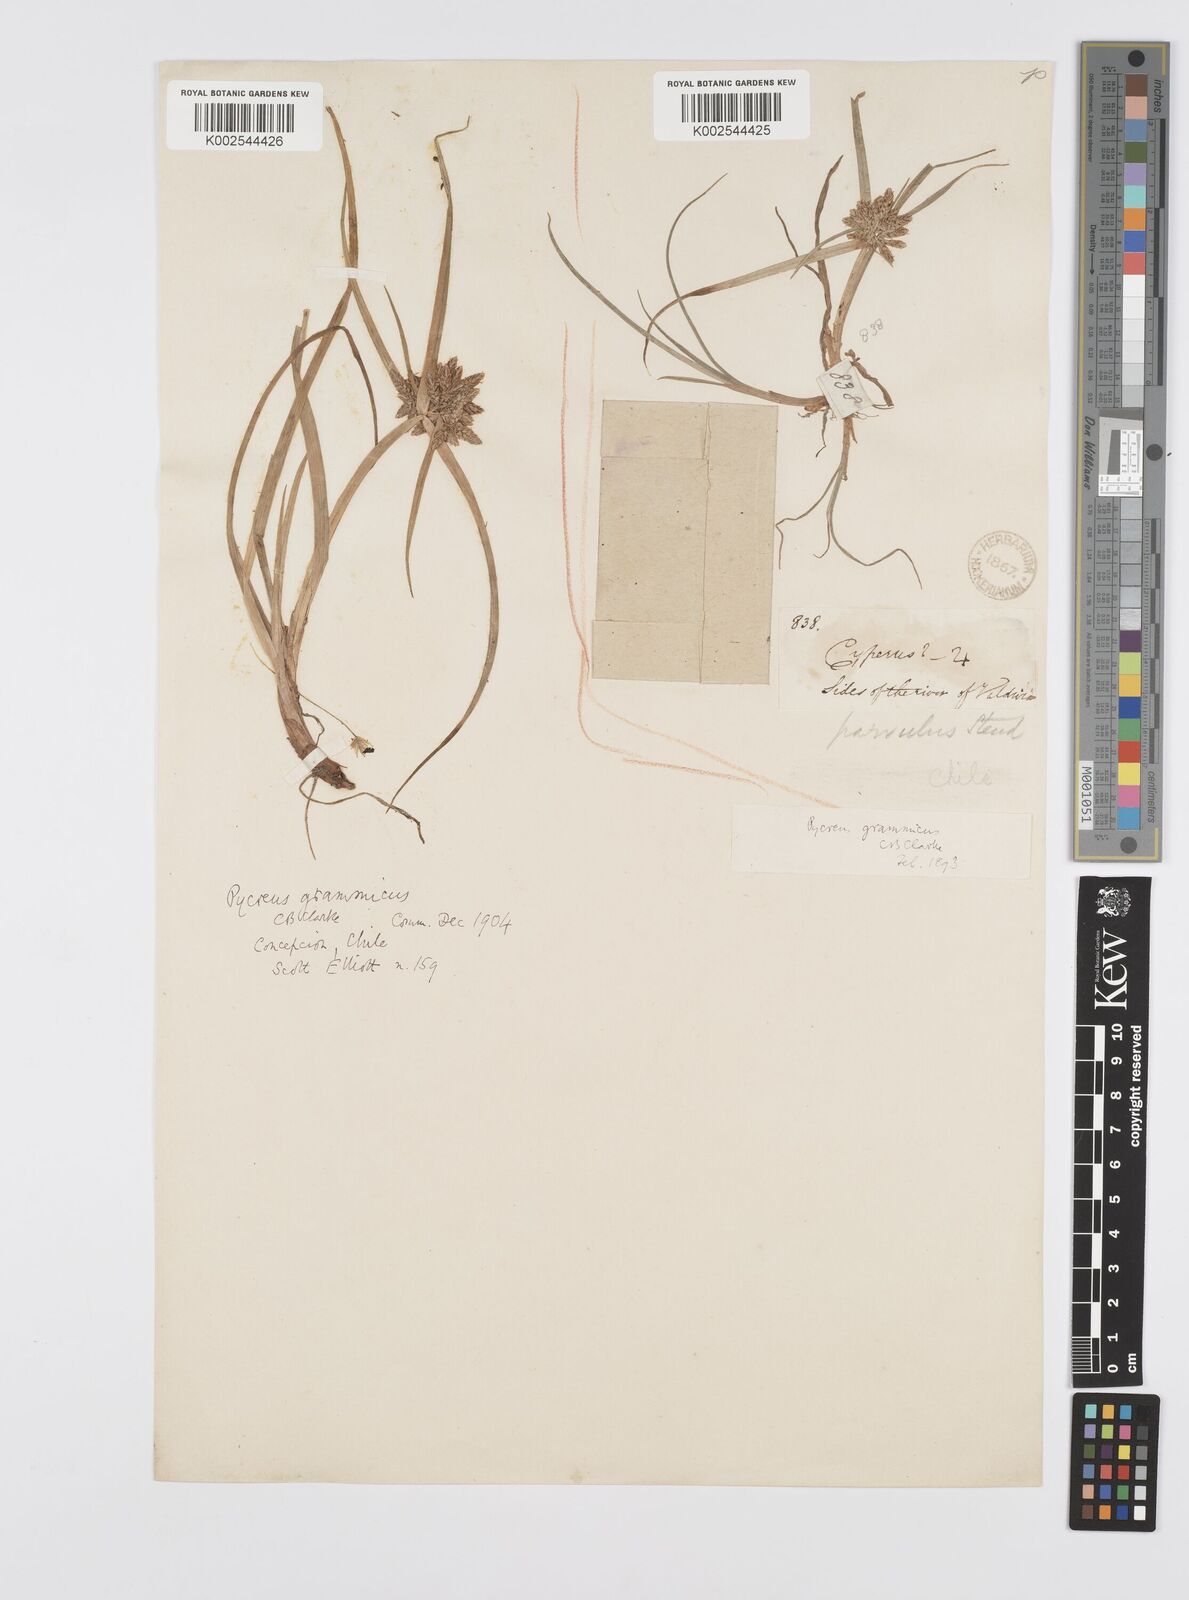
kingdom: Plantae
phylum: Tracheophyta
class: Liliopsida
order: Poales
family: Cyperaceae
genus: Cyperus
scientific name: Cyperus grammicus
